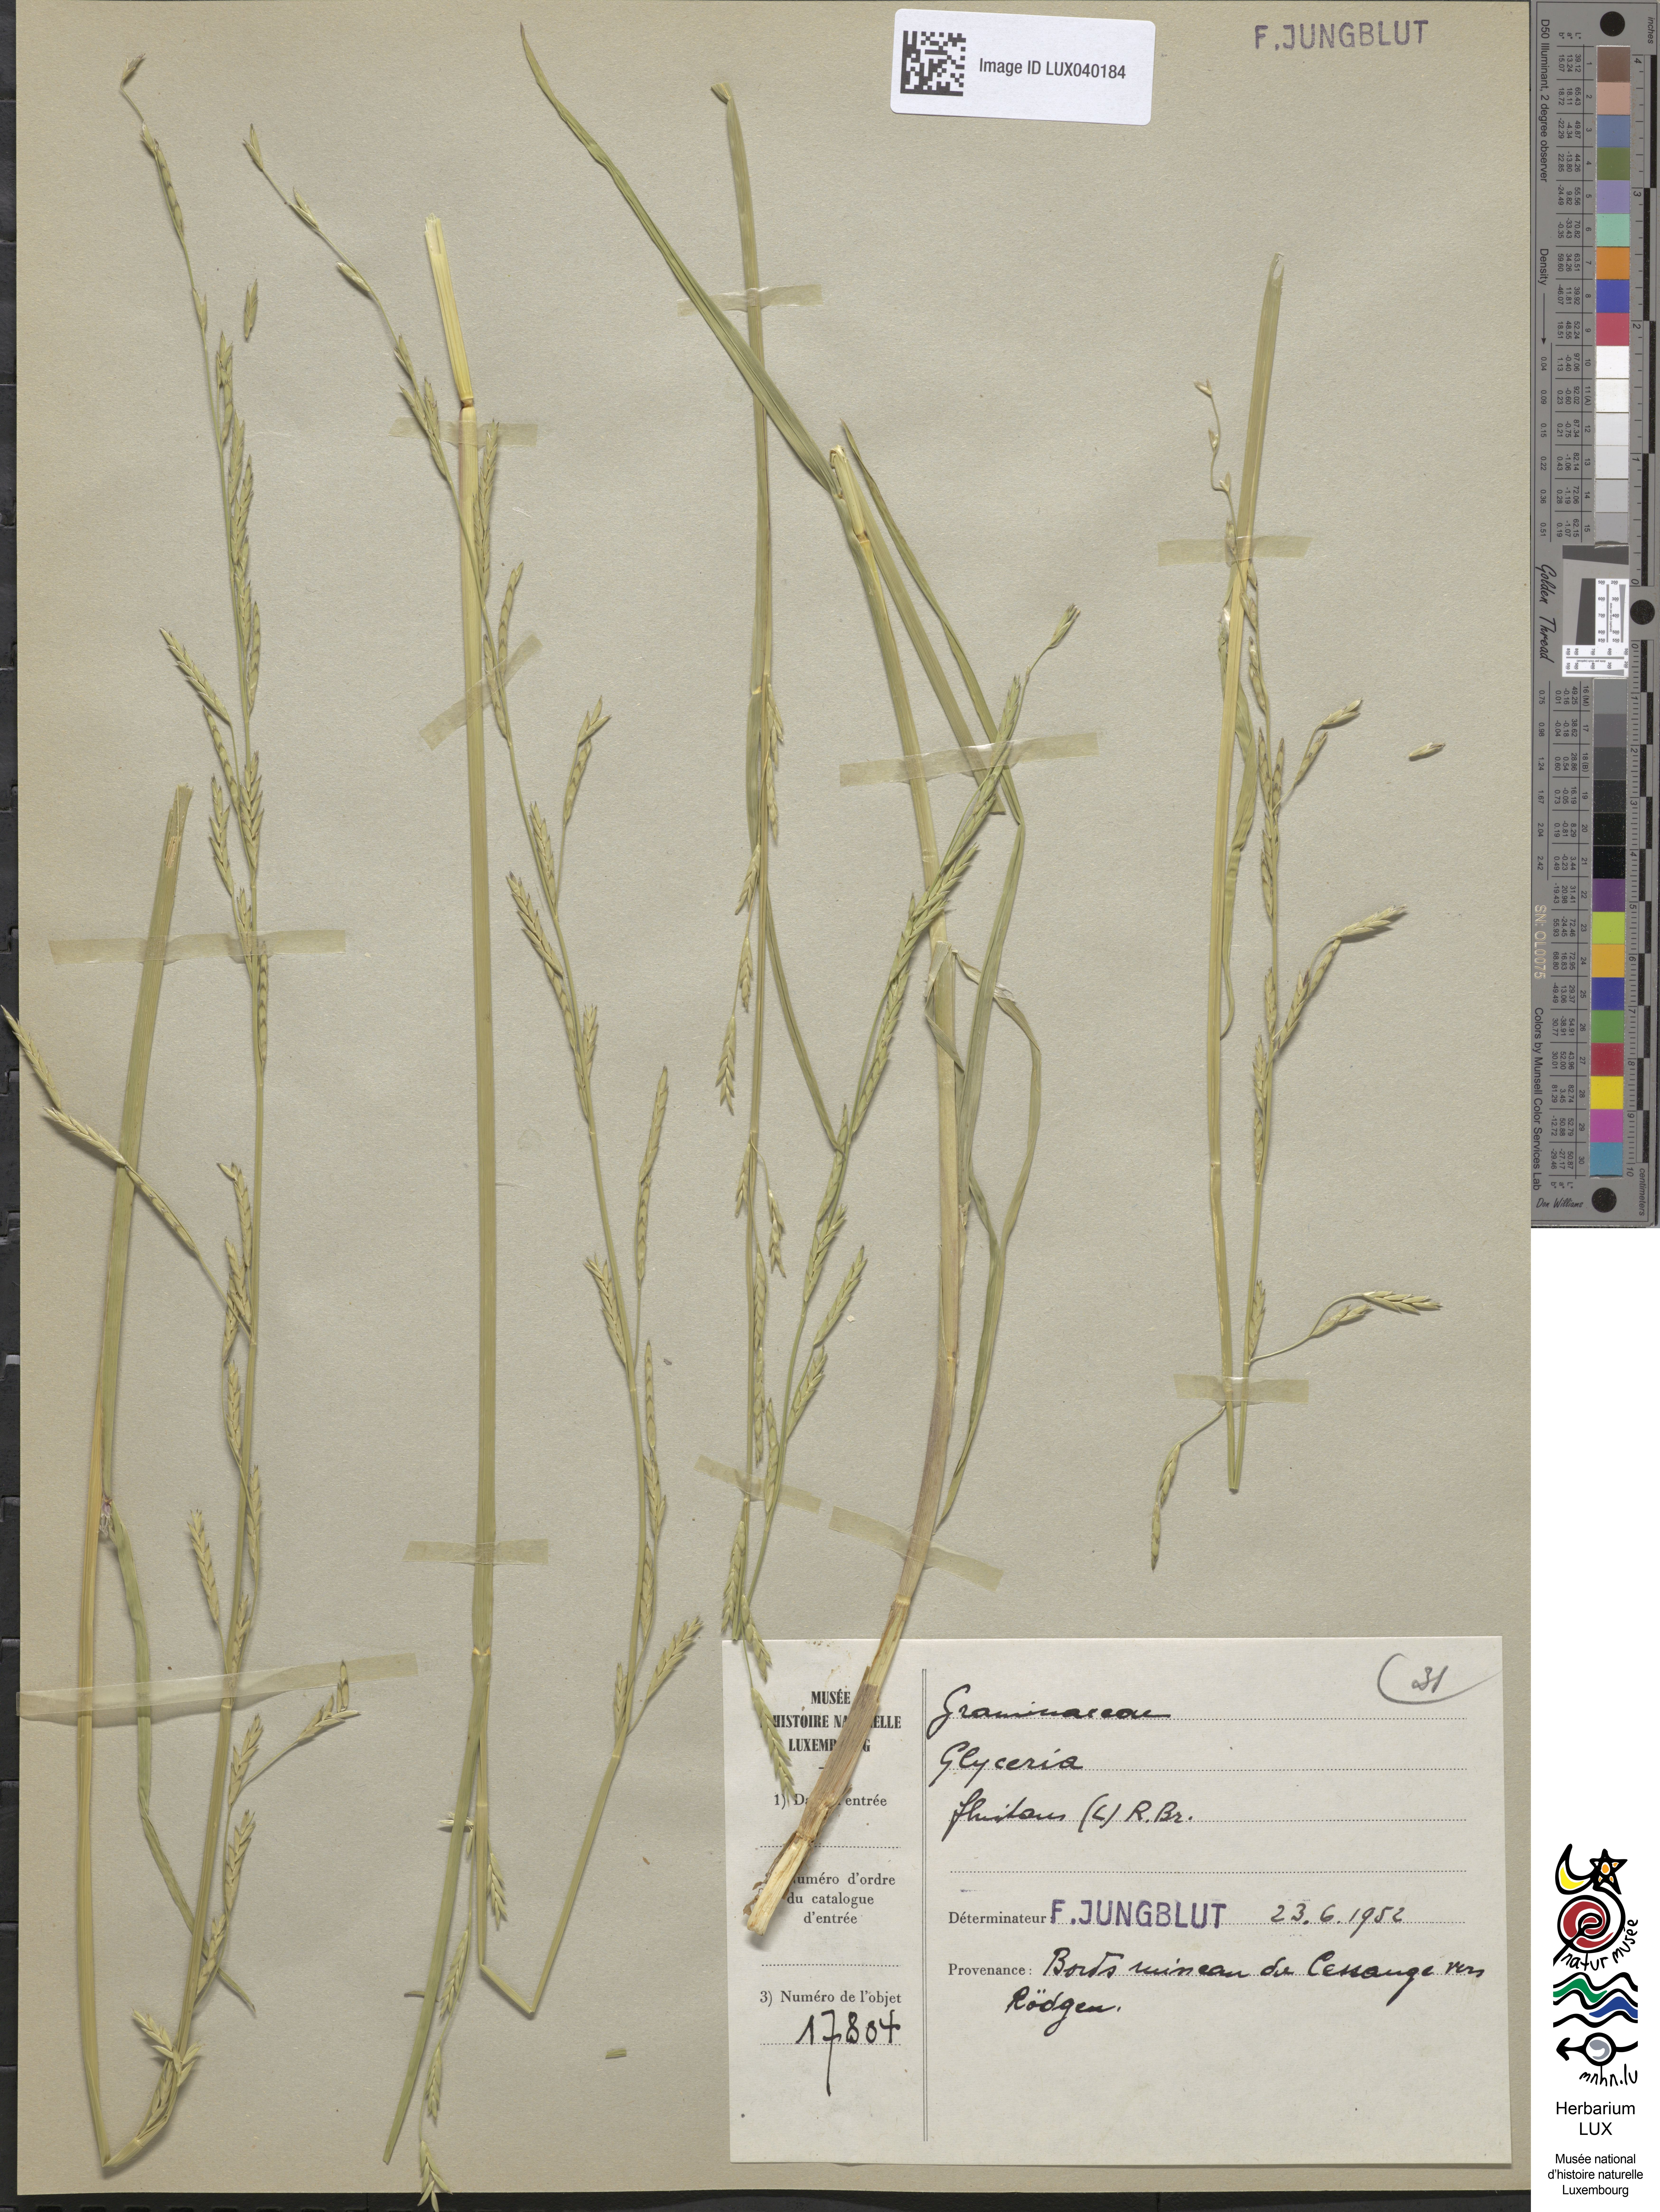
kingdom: Plantae
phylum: Tracheophyta
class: Liliopsida
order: Poales
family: Poaceae
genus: Glyceria
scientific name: Glyceria fluitans
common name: Floating sweet-grass
